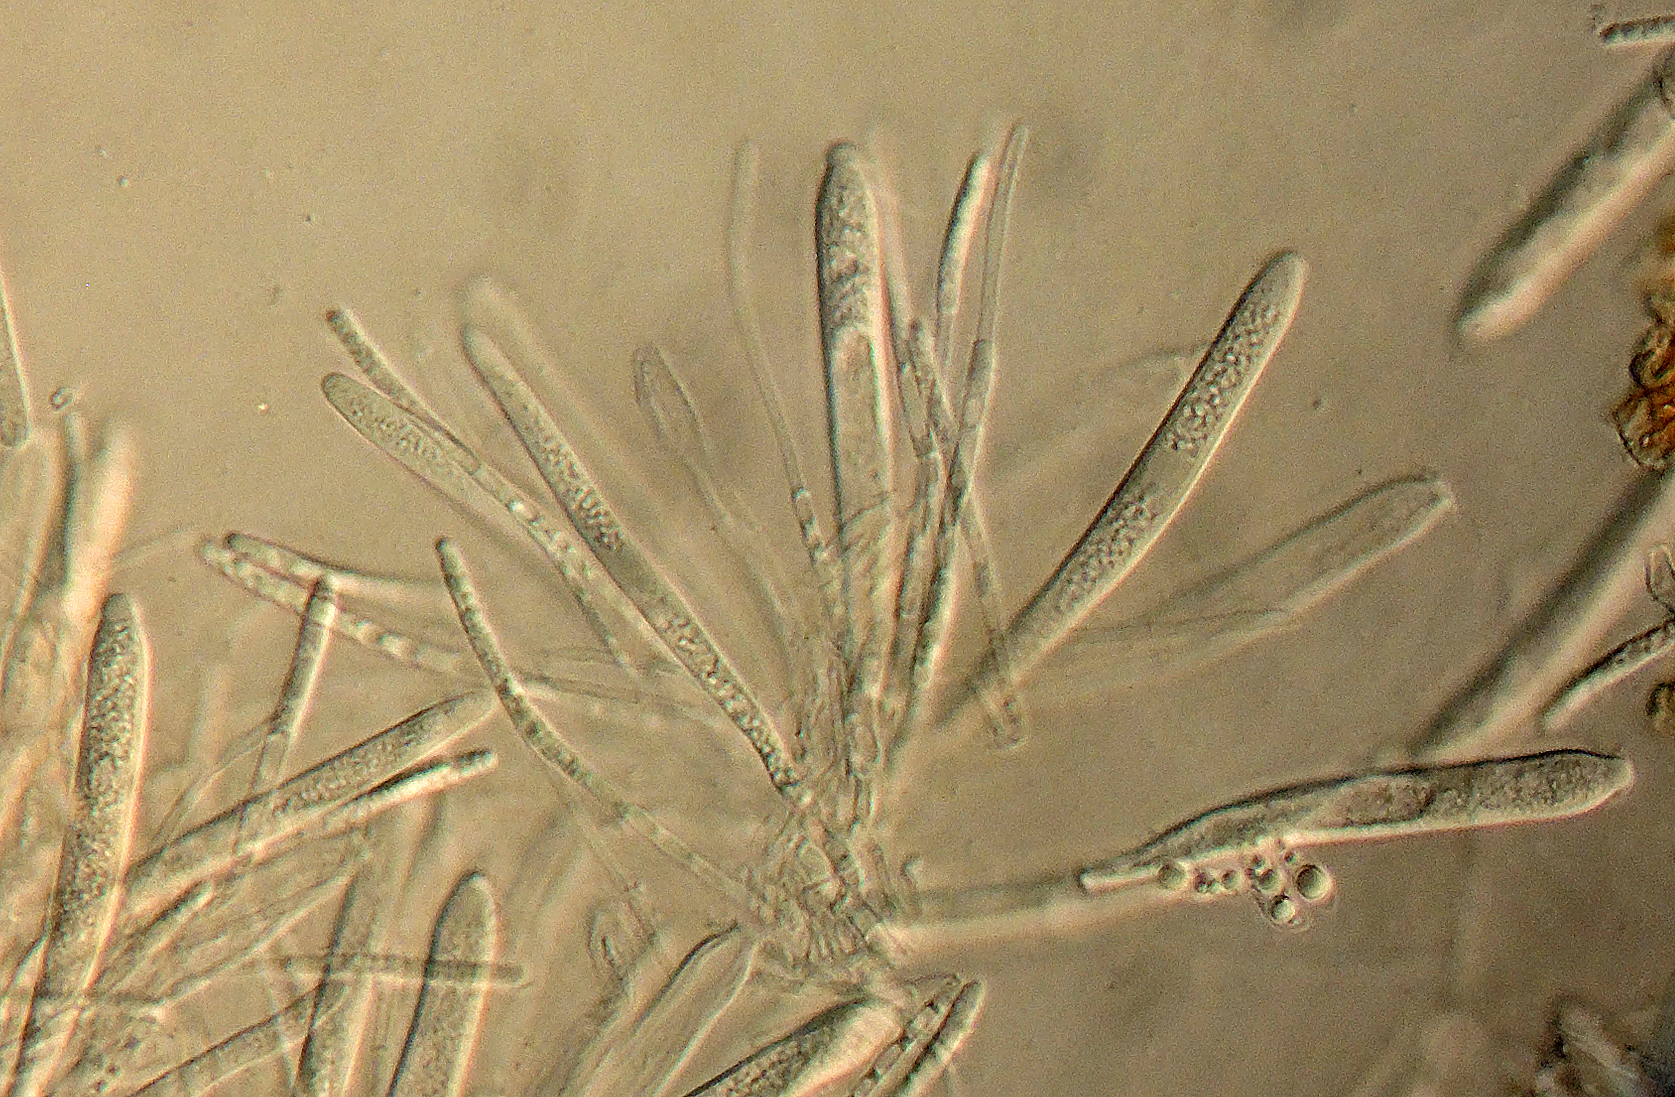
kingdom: Fungi
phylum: Ascomycota
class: Leotiomycetes
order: Helotiales
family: Helotiaceae
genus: Hymenoscyphus
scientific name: Hymenoscyphus
